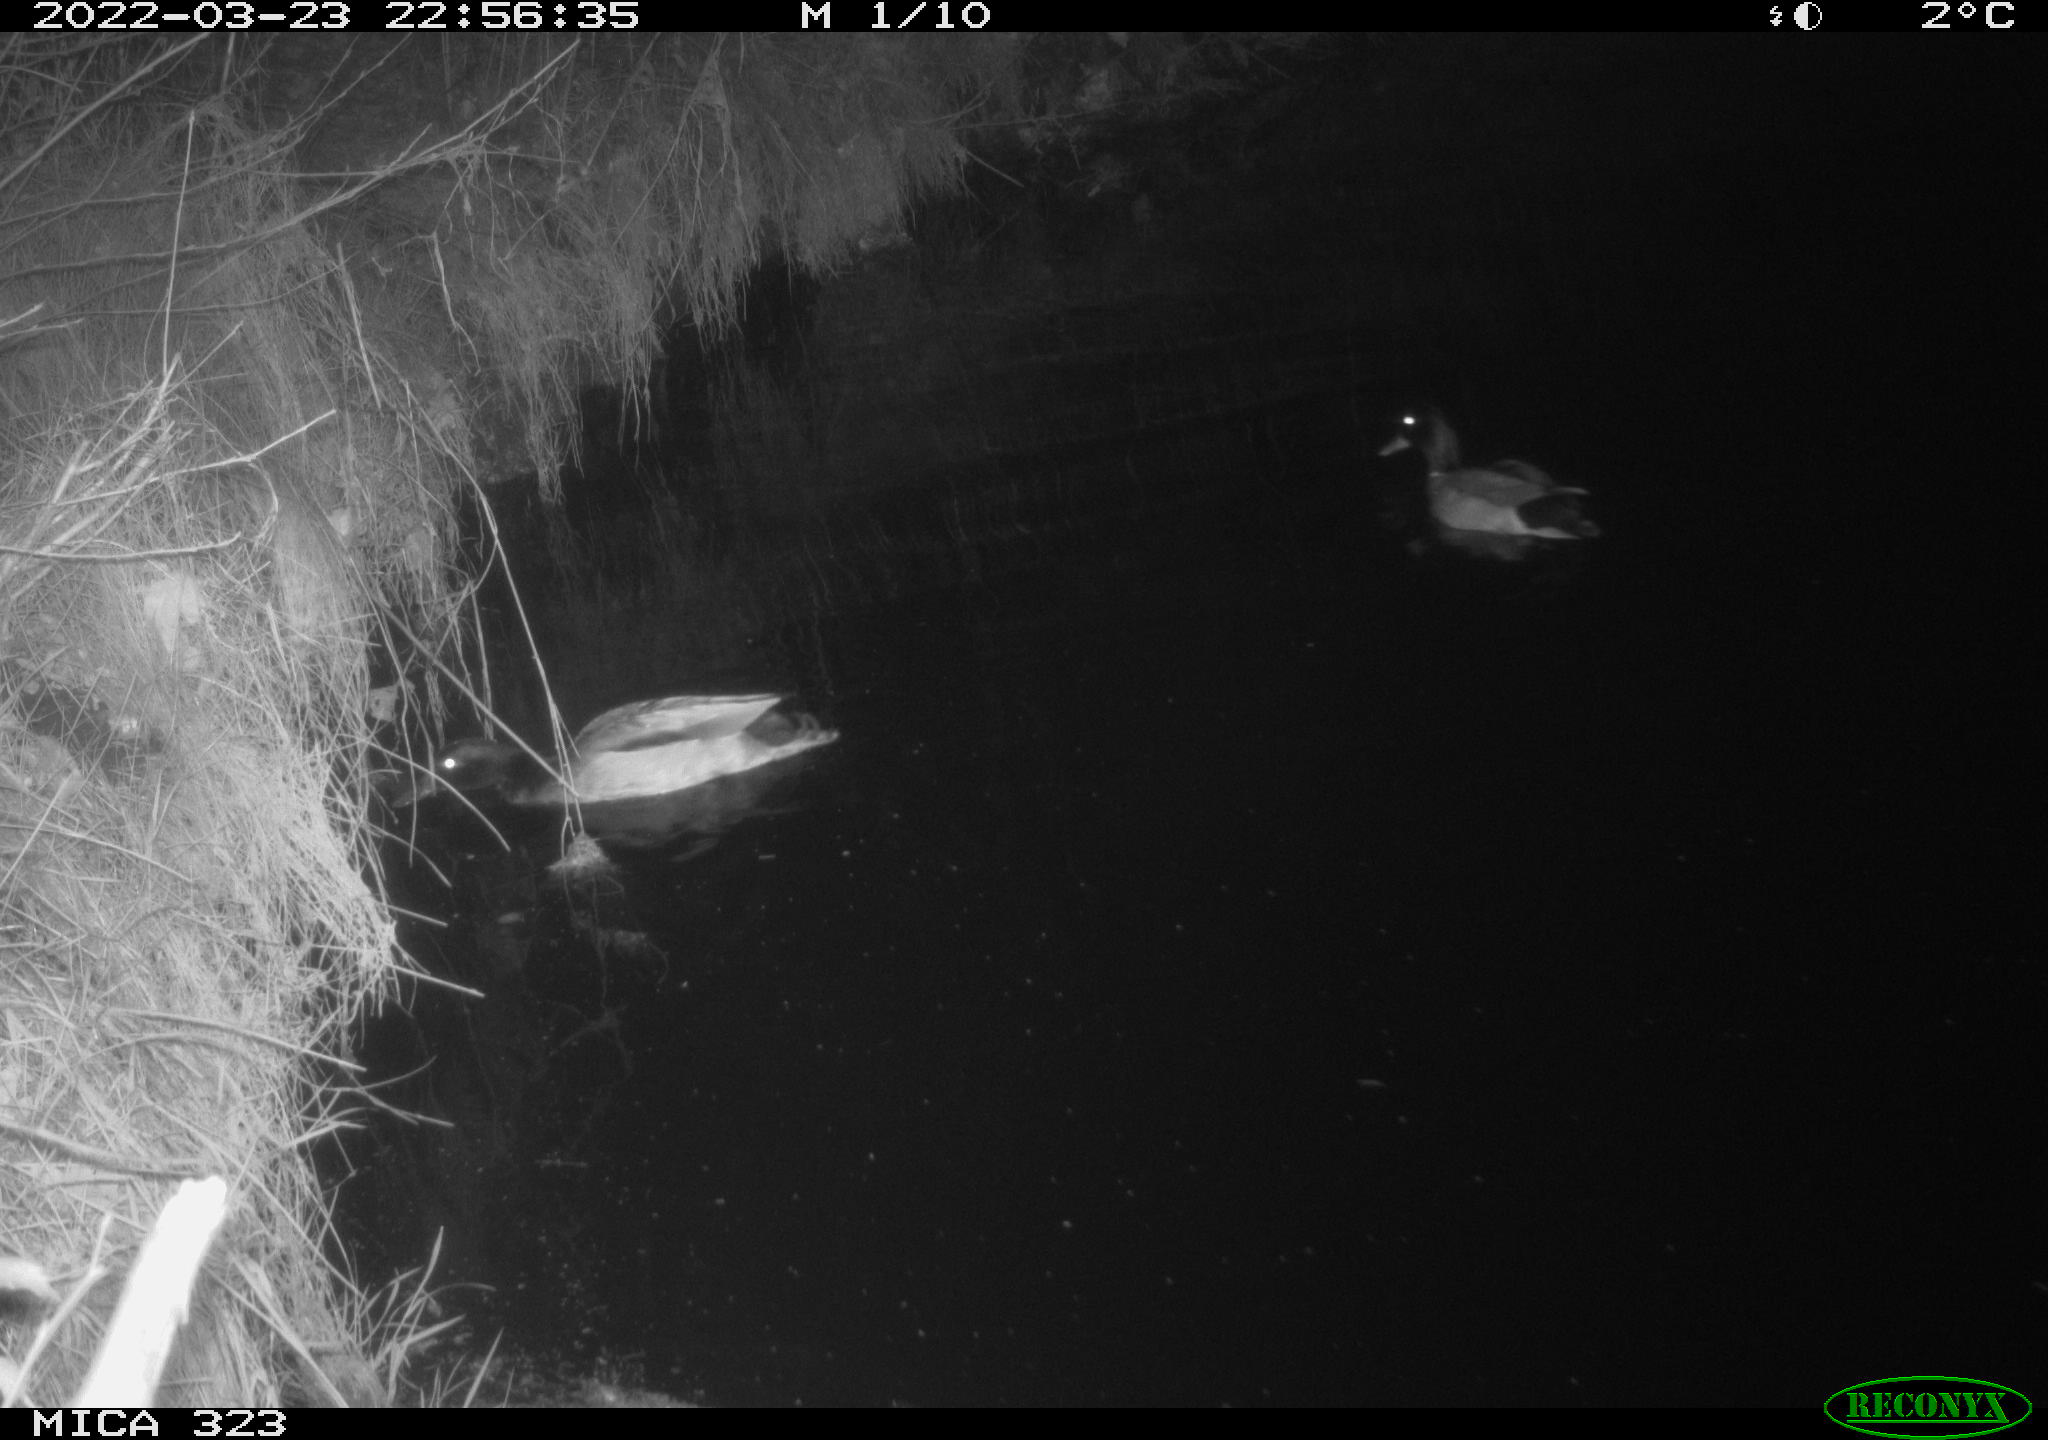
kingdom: Animalia
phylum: Chordata
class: Aves
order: Anseriformes
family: Anatidae
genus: Anas
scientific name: Anas platyrhynchos
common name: Mallard
